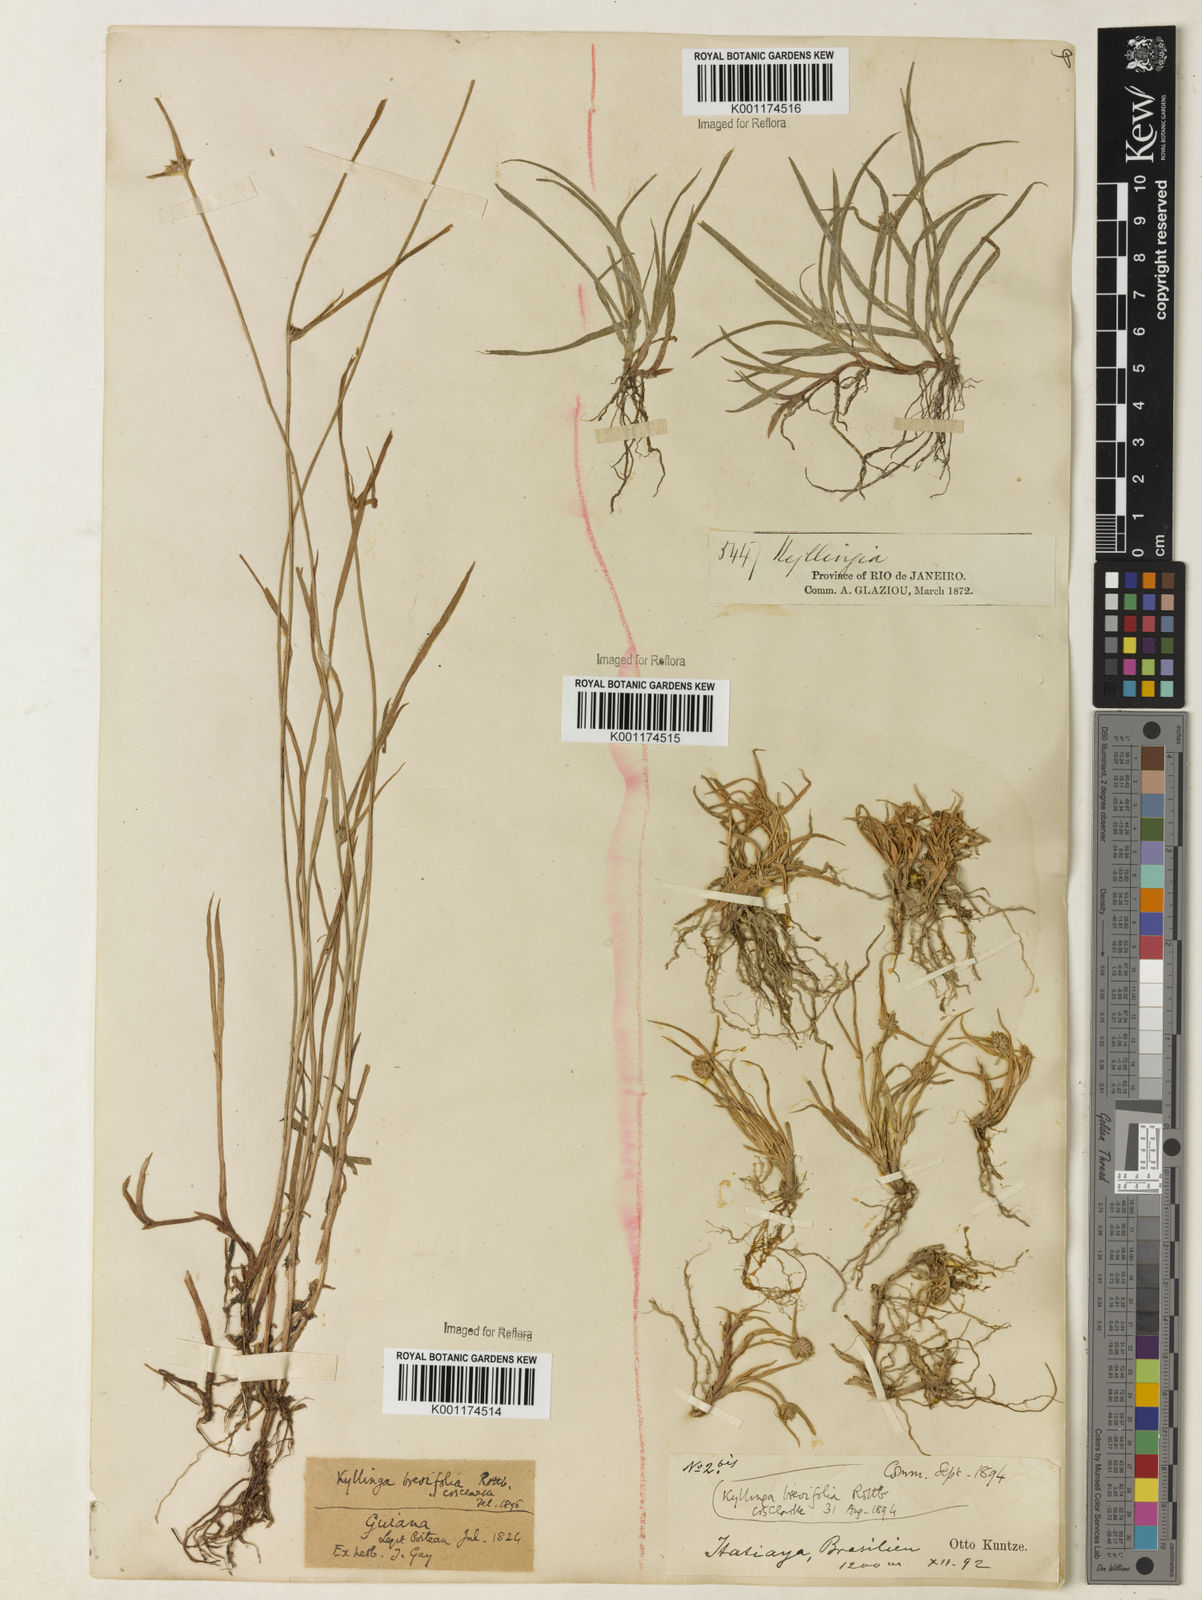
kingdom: Plantae
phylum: Tracheophyta
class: Liliopsida
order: Poales
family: Cyperaceae
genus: Cyperus
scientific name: Cyperus brevifolius
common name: Globe kyllinga
